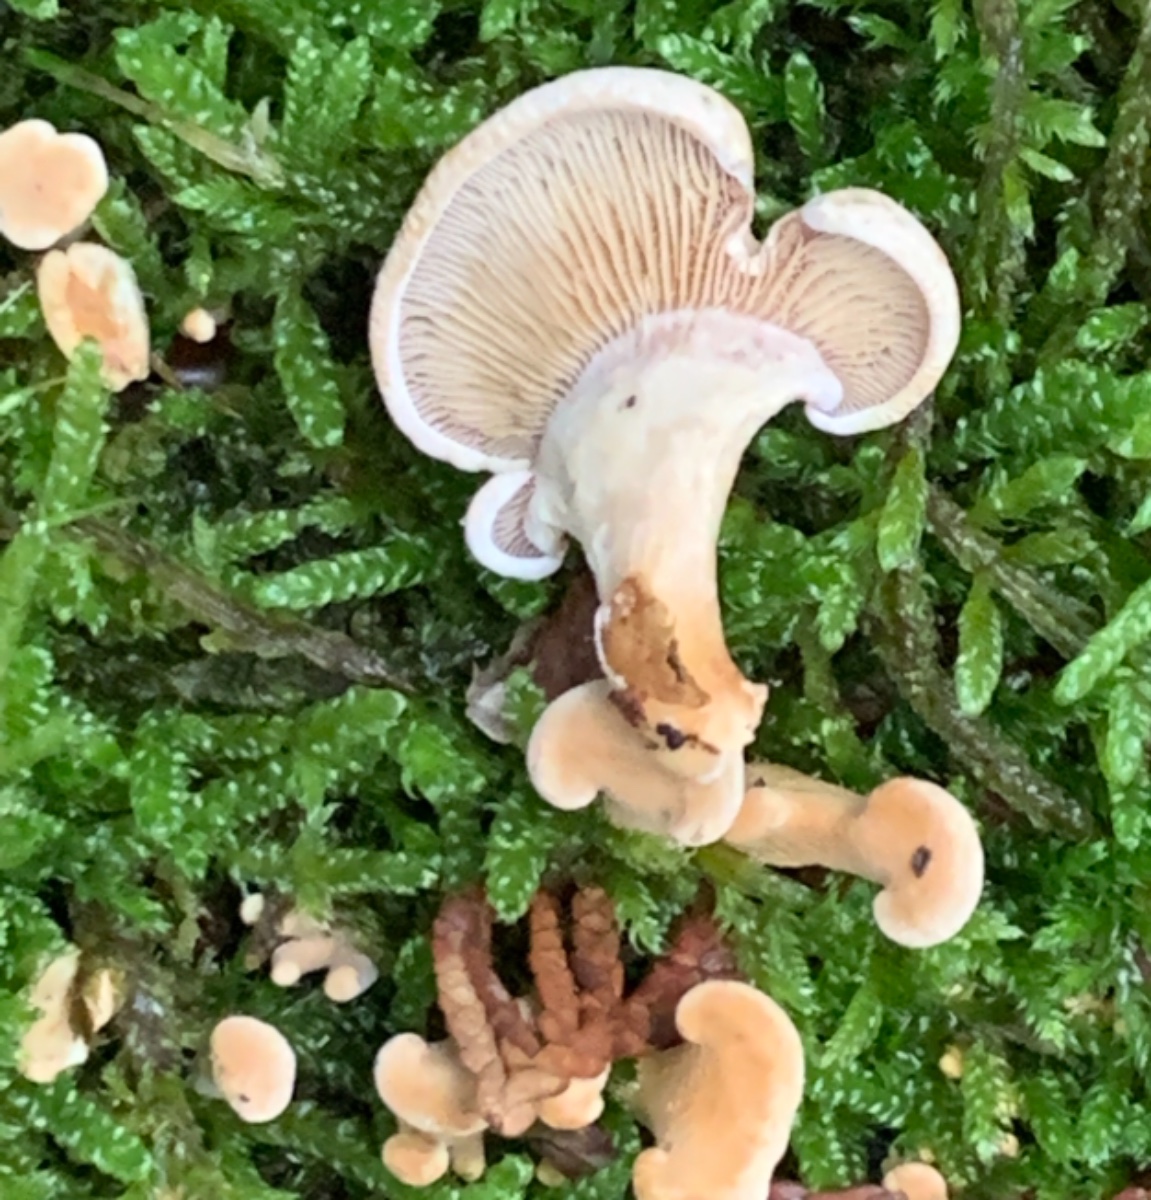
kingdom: Fungi
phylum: Basidiomycota
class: Agaricomycetes
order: Agaricales
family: Mycenaceae
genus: Panellus
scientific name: Panellus stipticus
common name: kliddet epaulethat
